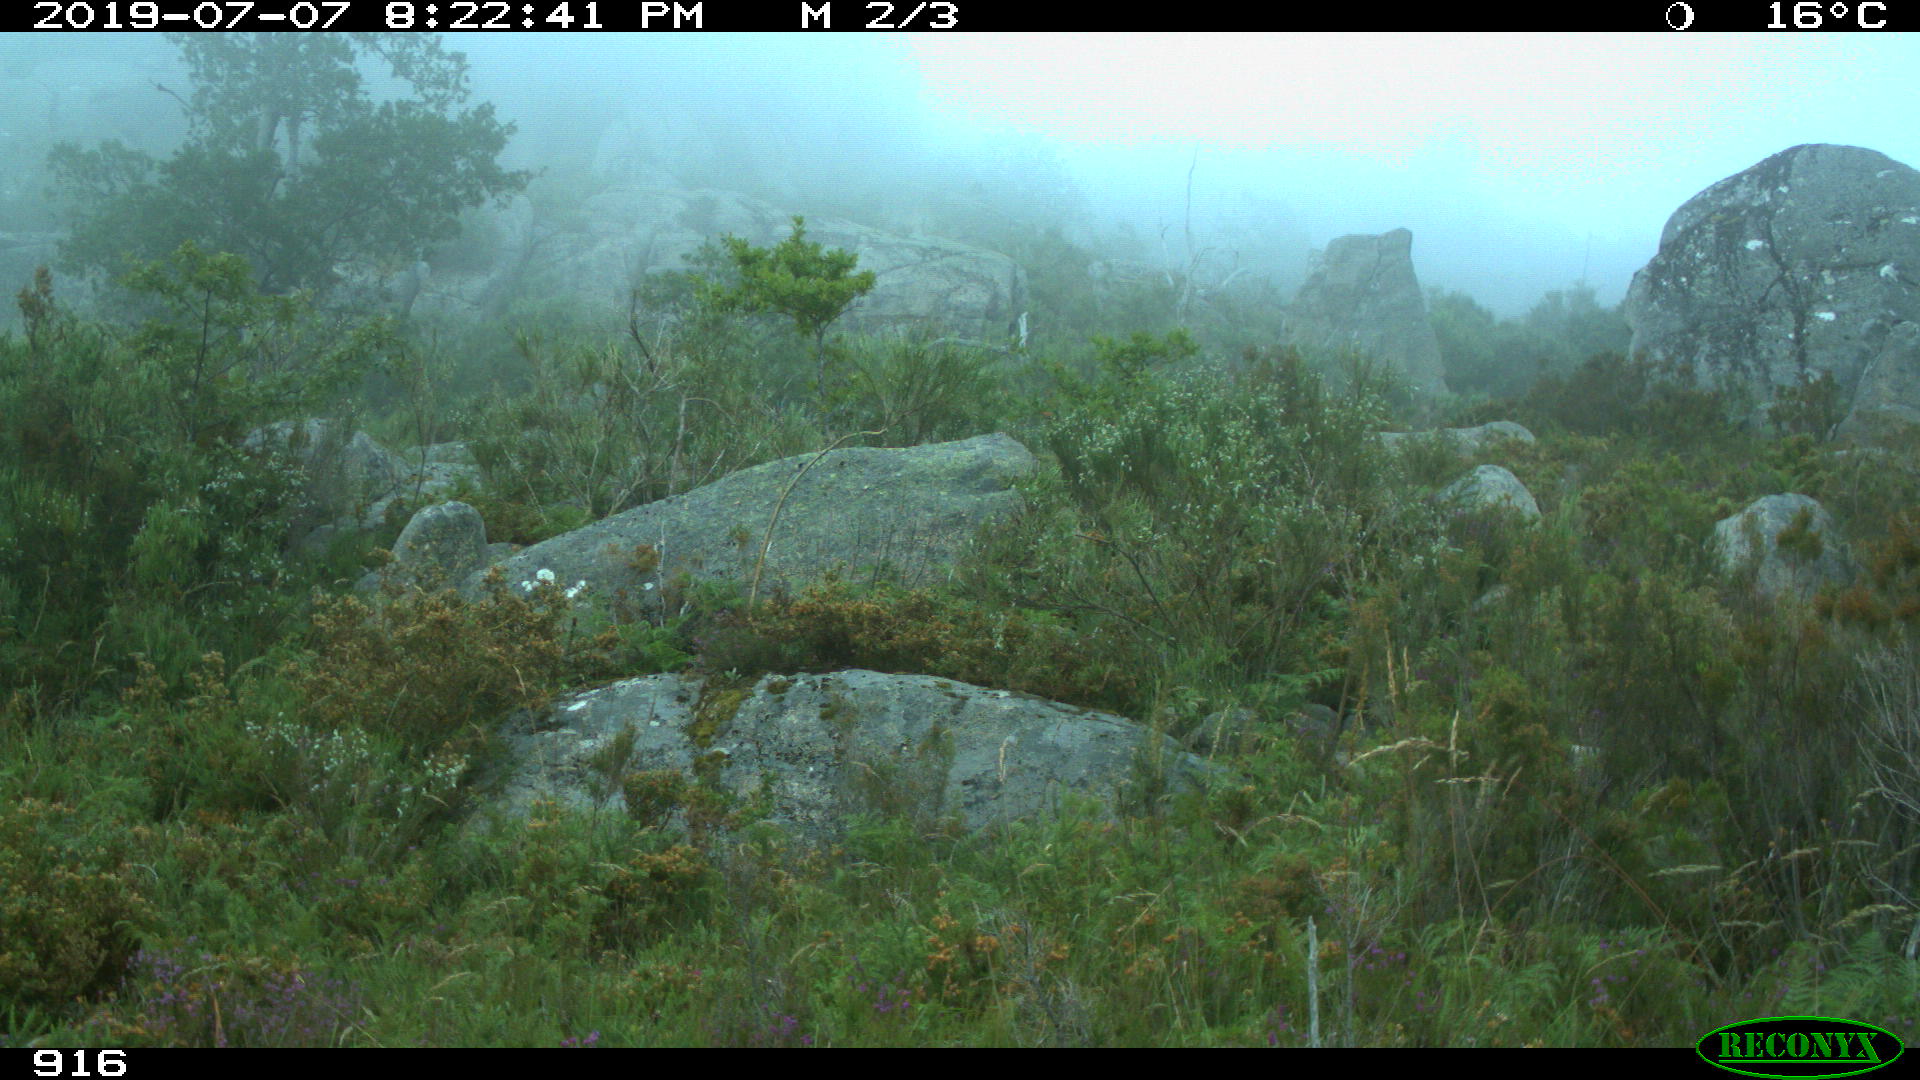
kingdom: Animalia
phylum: Chordata
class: Mammalia
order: Artiodactyla
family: Bovidae
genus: Bos
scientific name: Bos taurus
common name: Domesticated cattle
